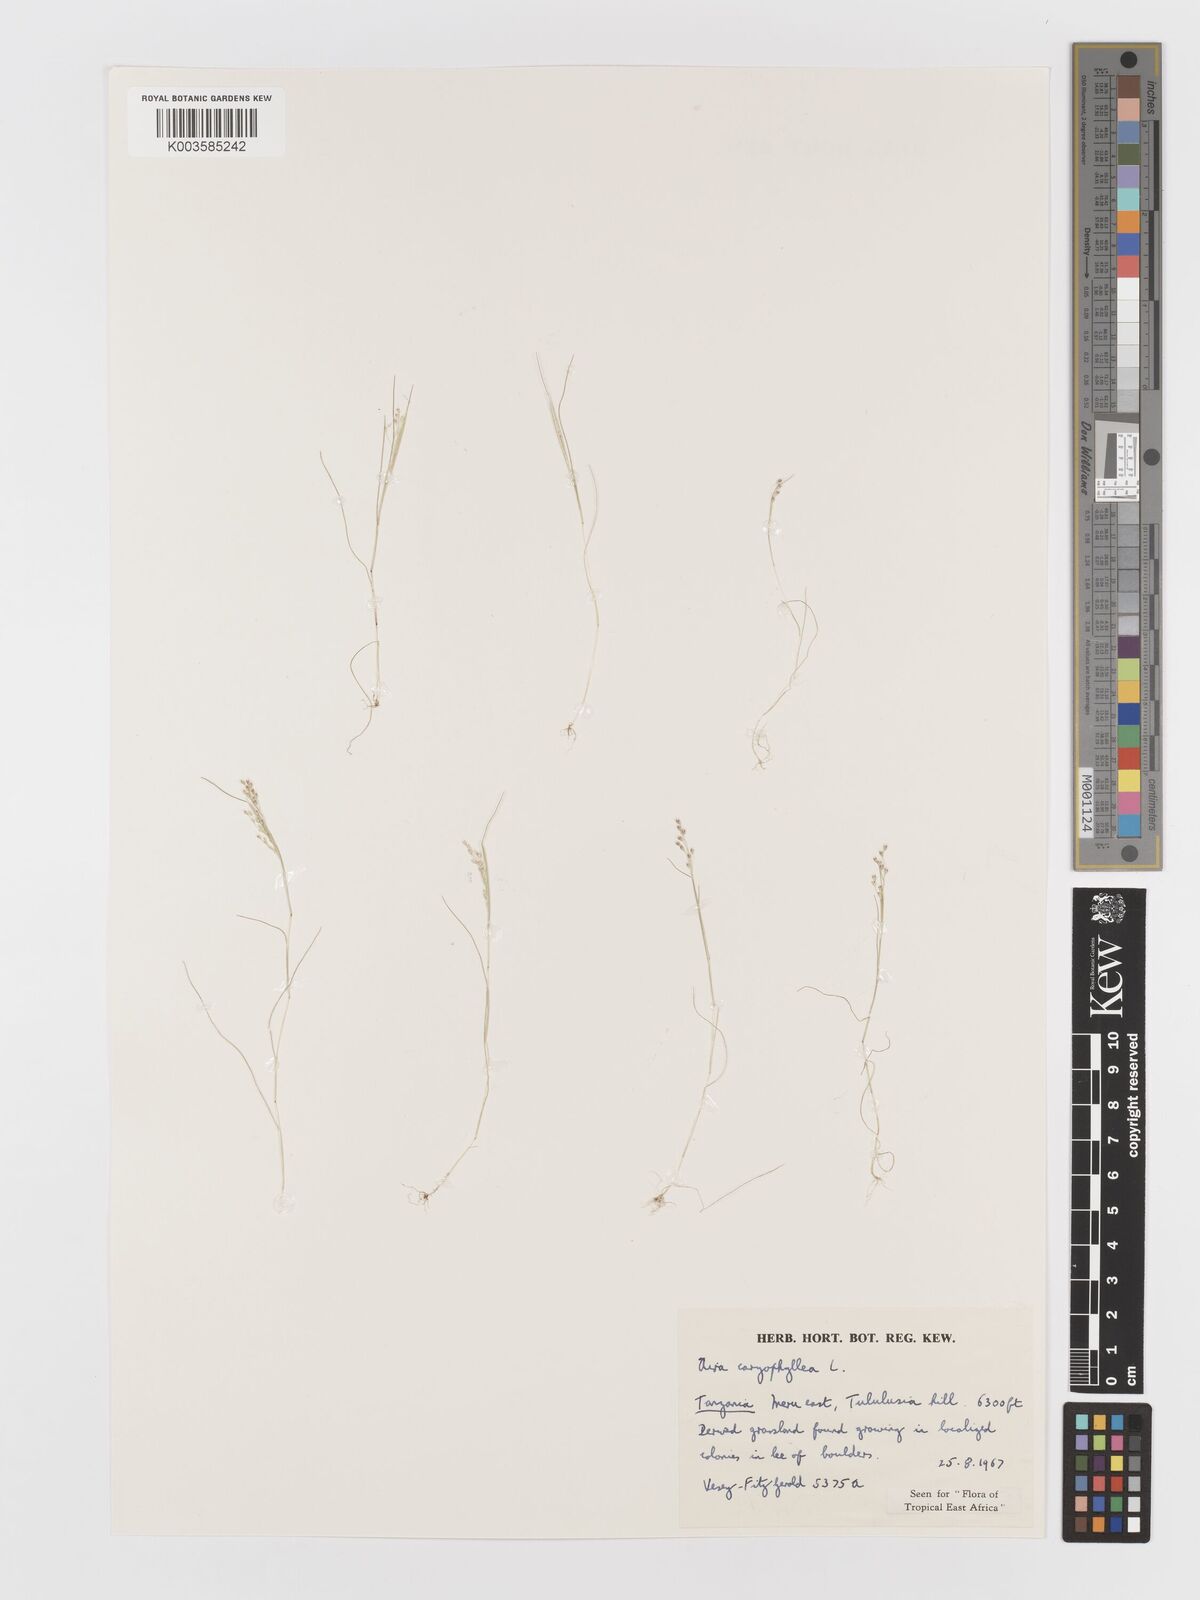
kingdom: Plantae
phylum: Tracheophyta
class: Liliopsida
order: Poales
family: Poaceae
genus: Aira
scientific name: Aira caryophyllea
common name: Silver hairgrass
